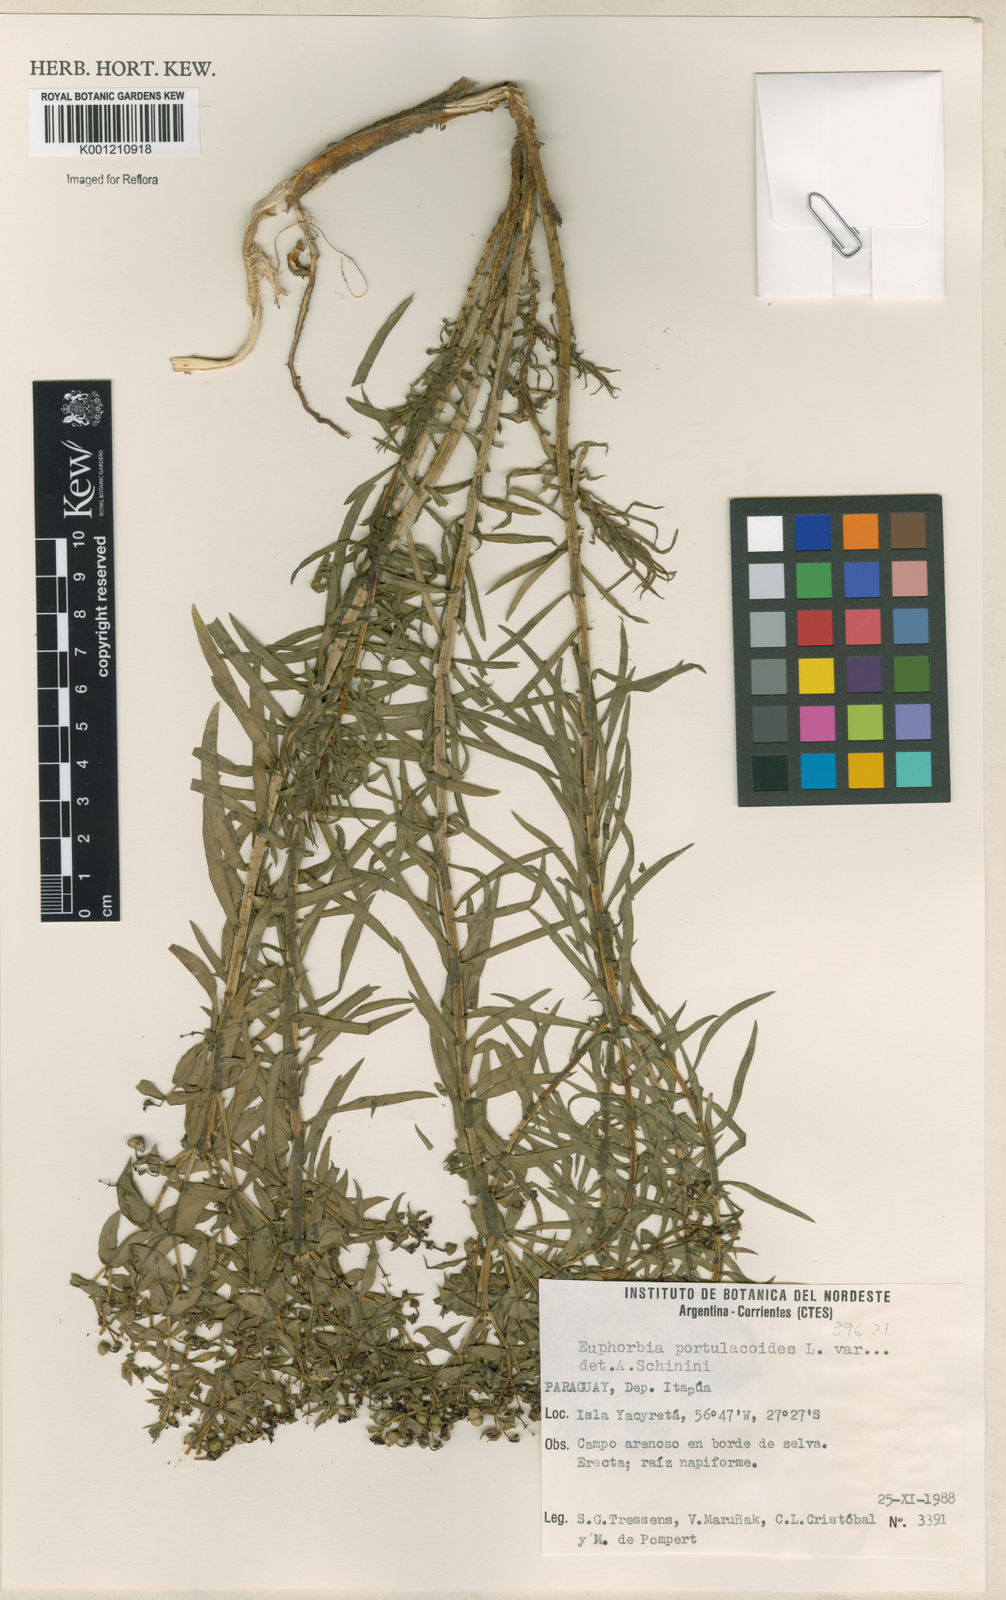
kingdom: Plantae
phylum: Tracheophyta
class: Magnoliopsida
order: Malpighiales
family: Euphorbiaceae
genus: Euphorbia
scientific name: Euphorbia portulacoides
